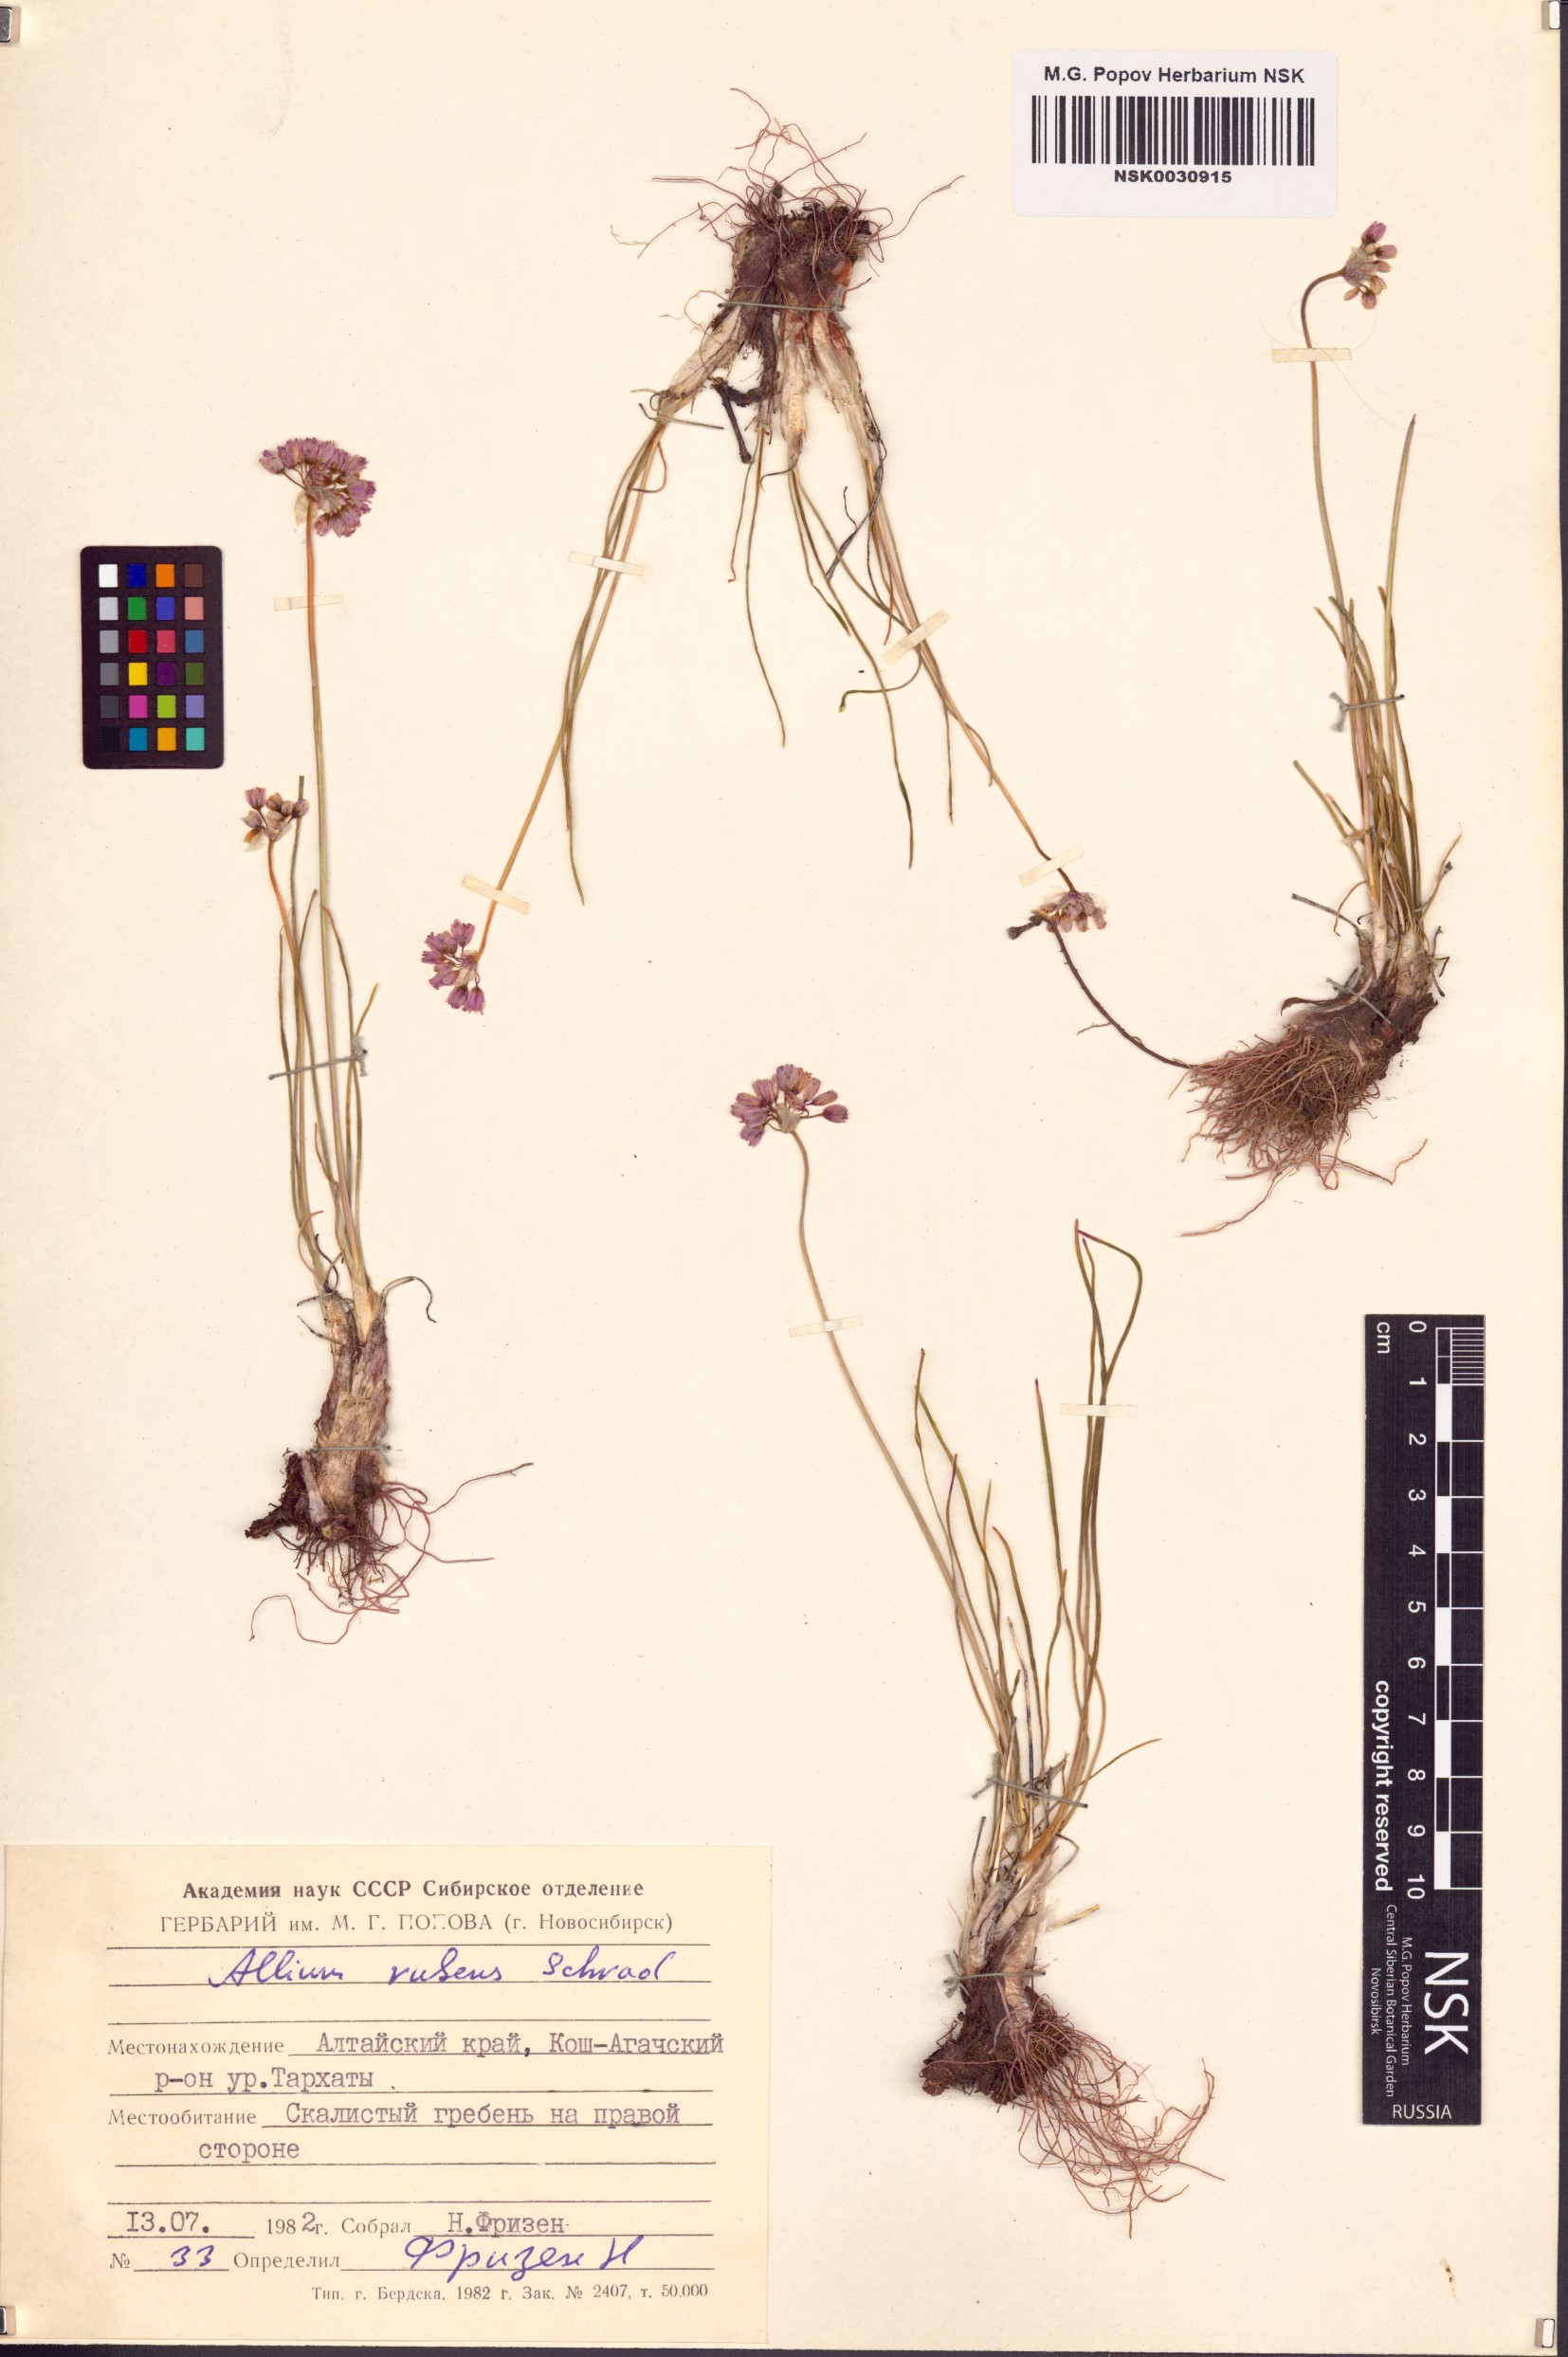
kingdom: Plantae
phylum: Tracheophyta
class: Liliopsida
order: Asparagales
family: Amaryllidaceae
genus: Allium
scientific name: Allium rubens
